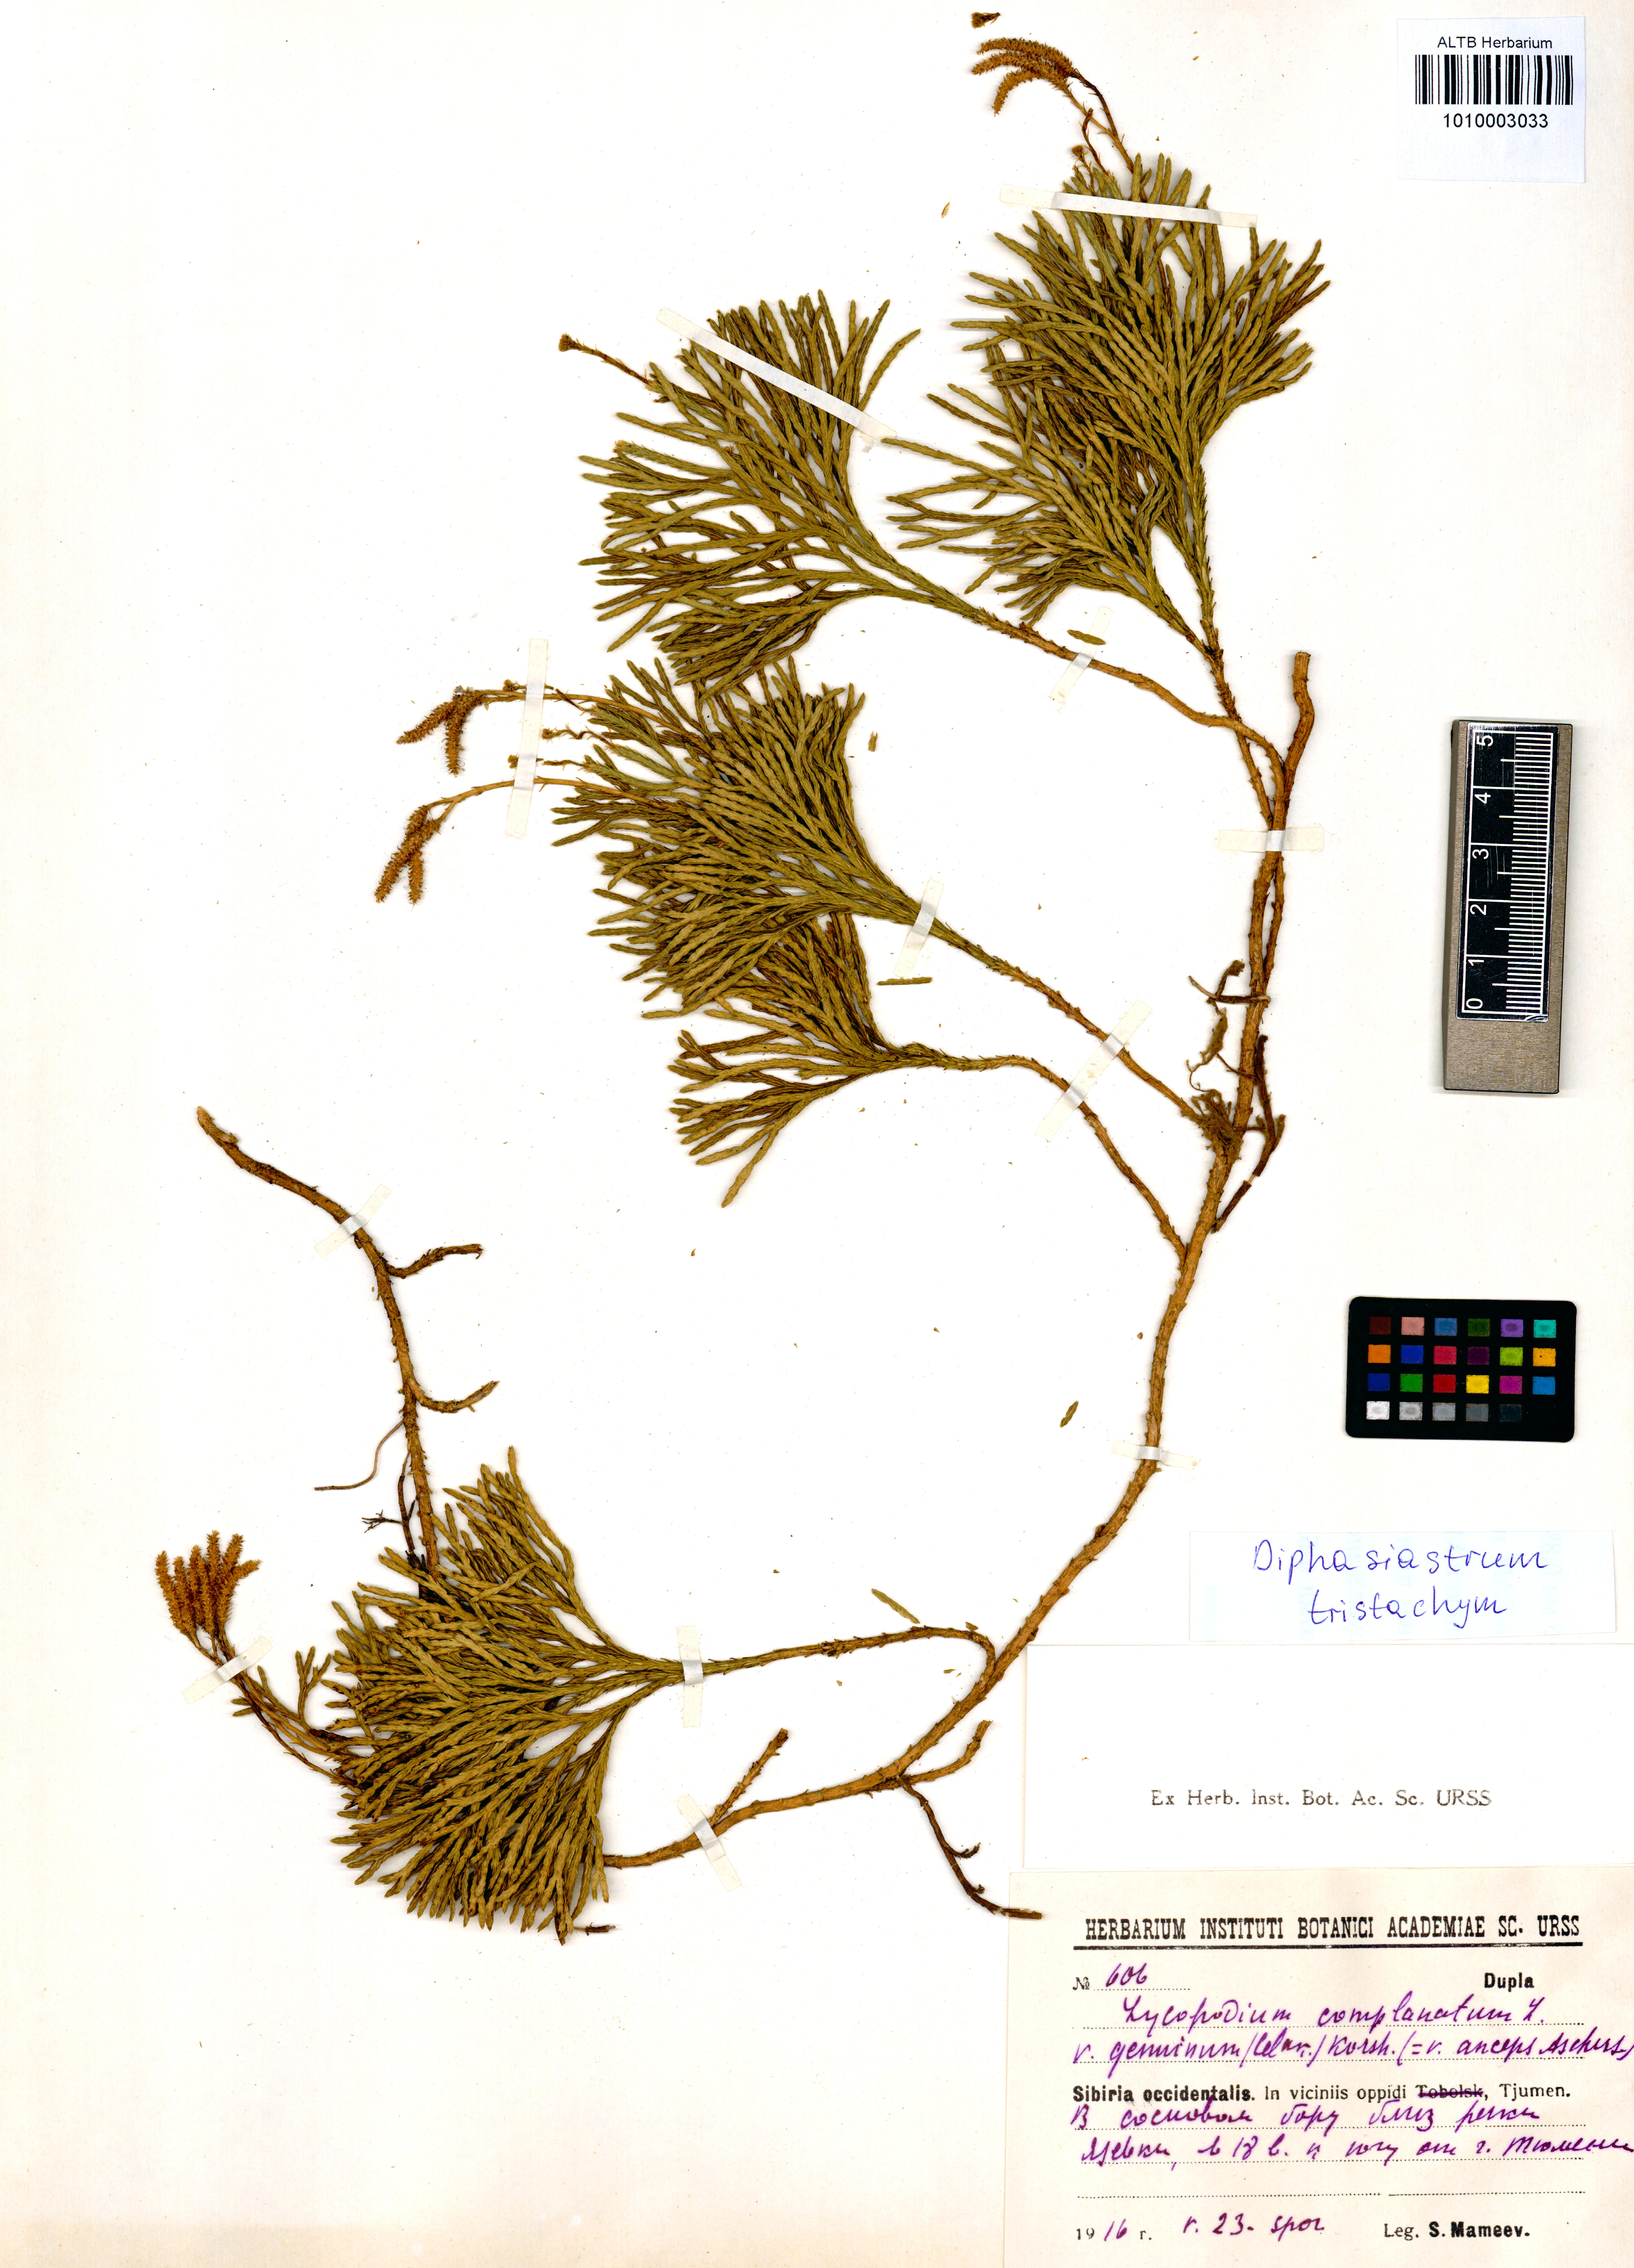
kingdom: Plantae
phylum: Tracheophyta
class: Lycopodiopsida
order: Lycopodiales
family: Lycopodiaceae
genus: Diphasiastrum
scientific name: Diphasiastrum tristachyum
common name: Blue ground-cedar
